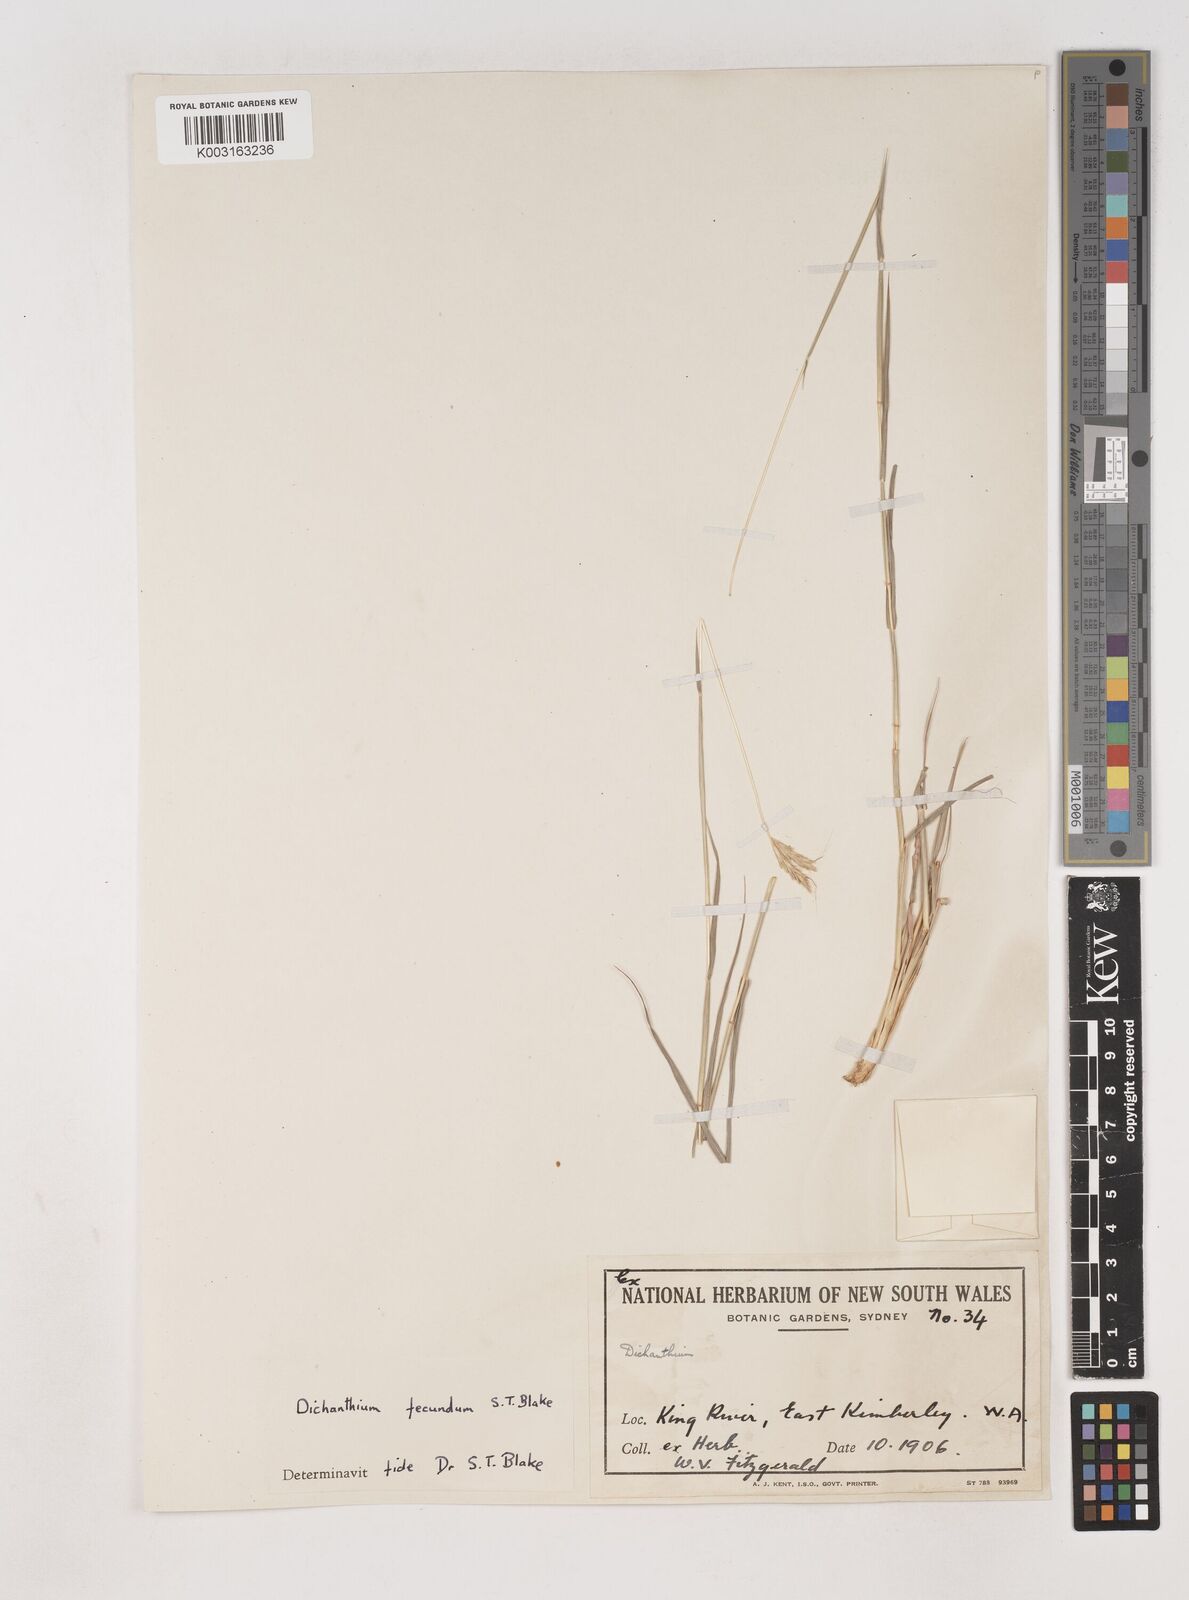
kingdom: Plantae
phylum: Tracheophyta
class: Liliopsida
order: Poales
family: Poaceae
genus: Dichanthium
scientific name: Dichanthium fecundum
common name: Bundle-bundle
